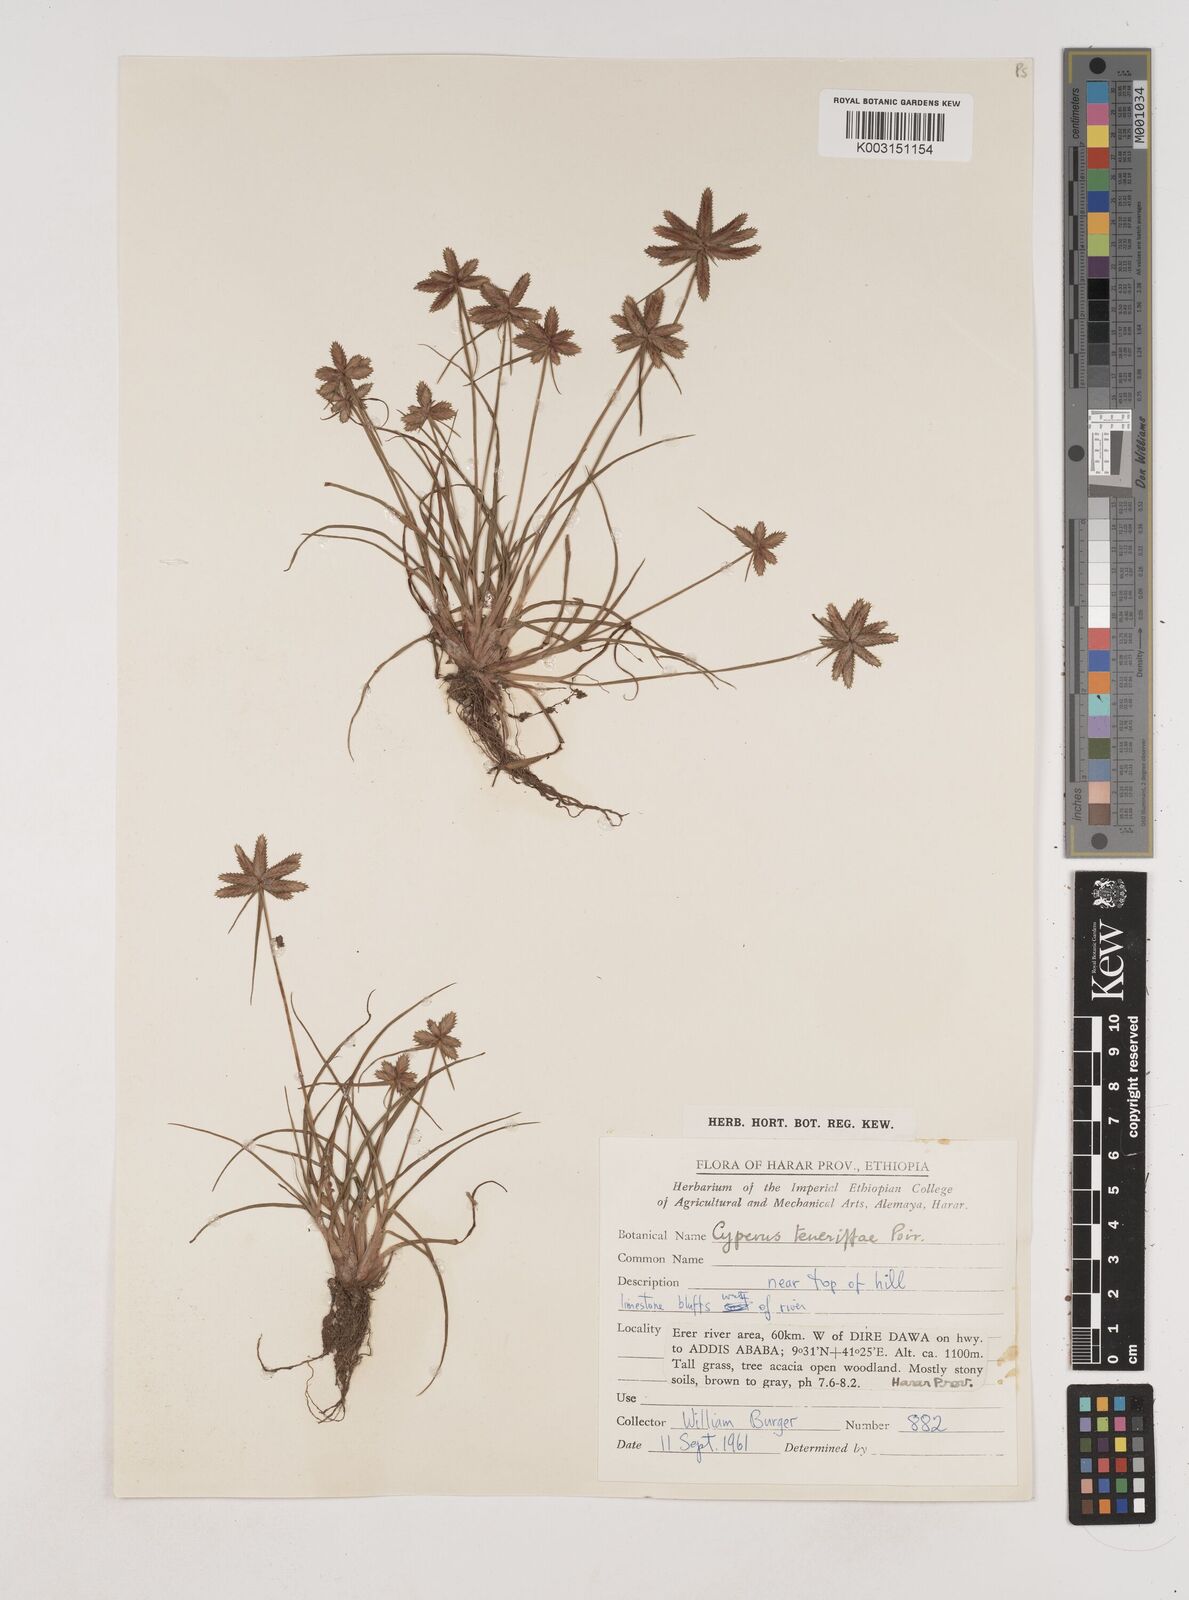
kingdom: Plantae
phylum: Tracheophyta
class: Liliopsida
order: Poales
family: Cyperaceae
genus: Cyperus
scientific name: Cyperus rubicundus
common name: Coco-grass
